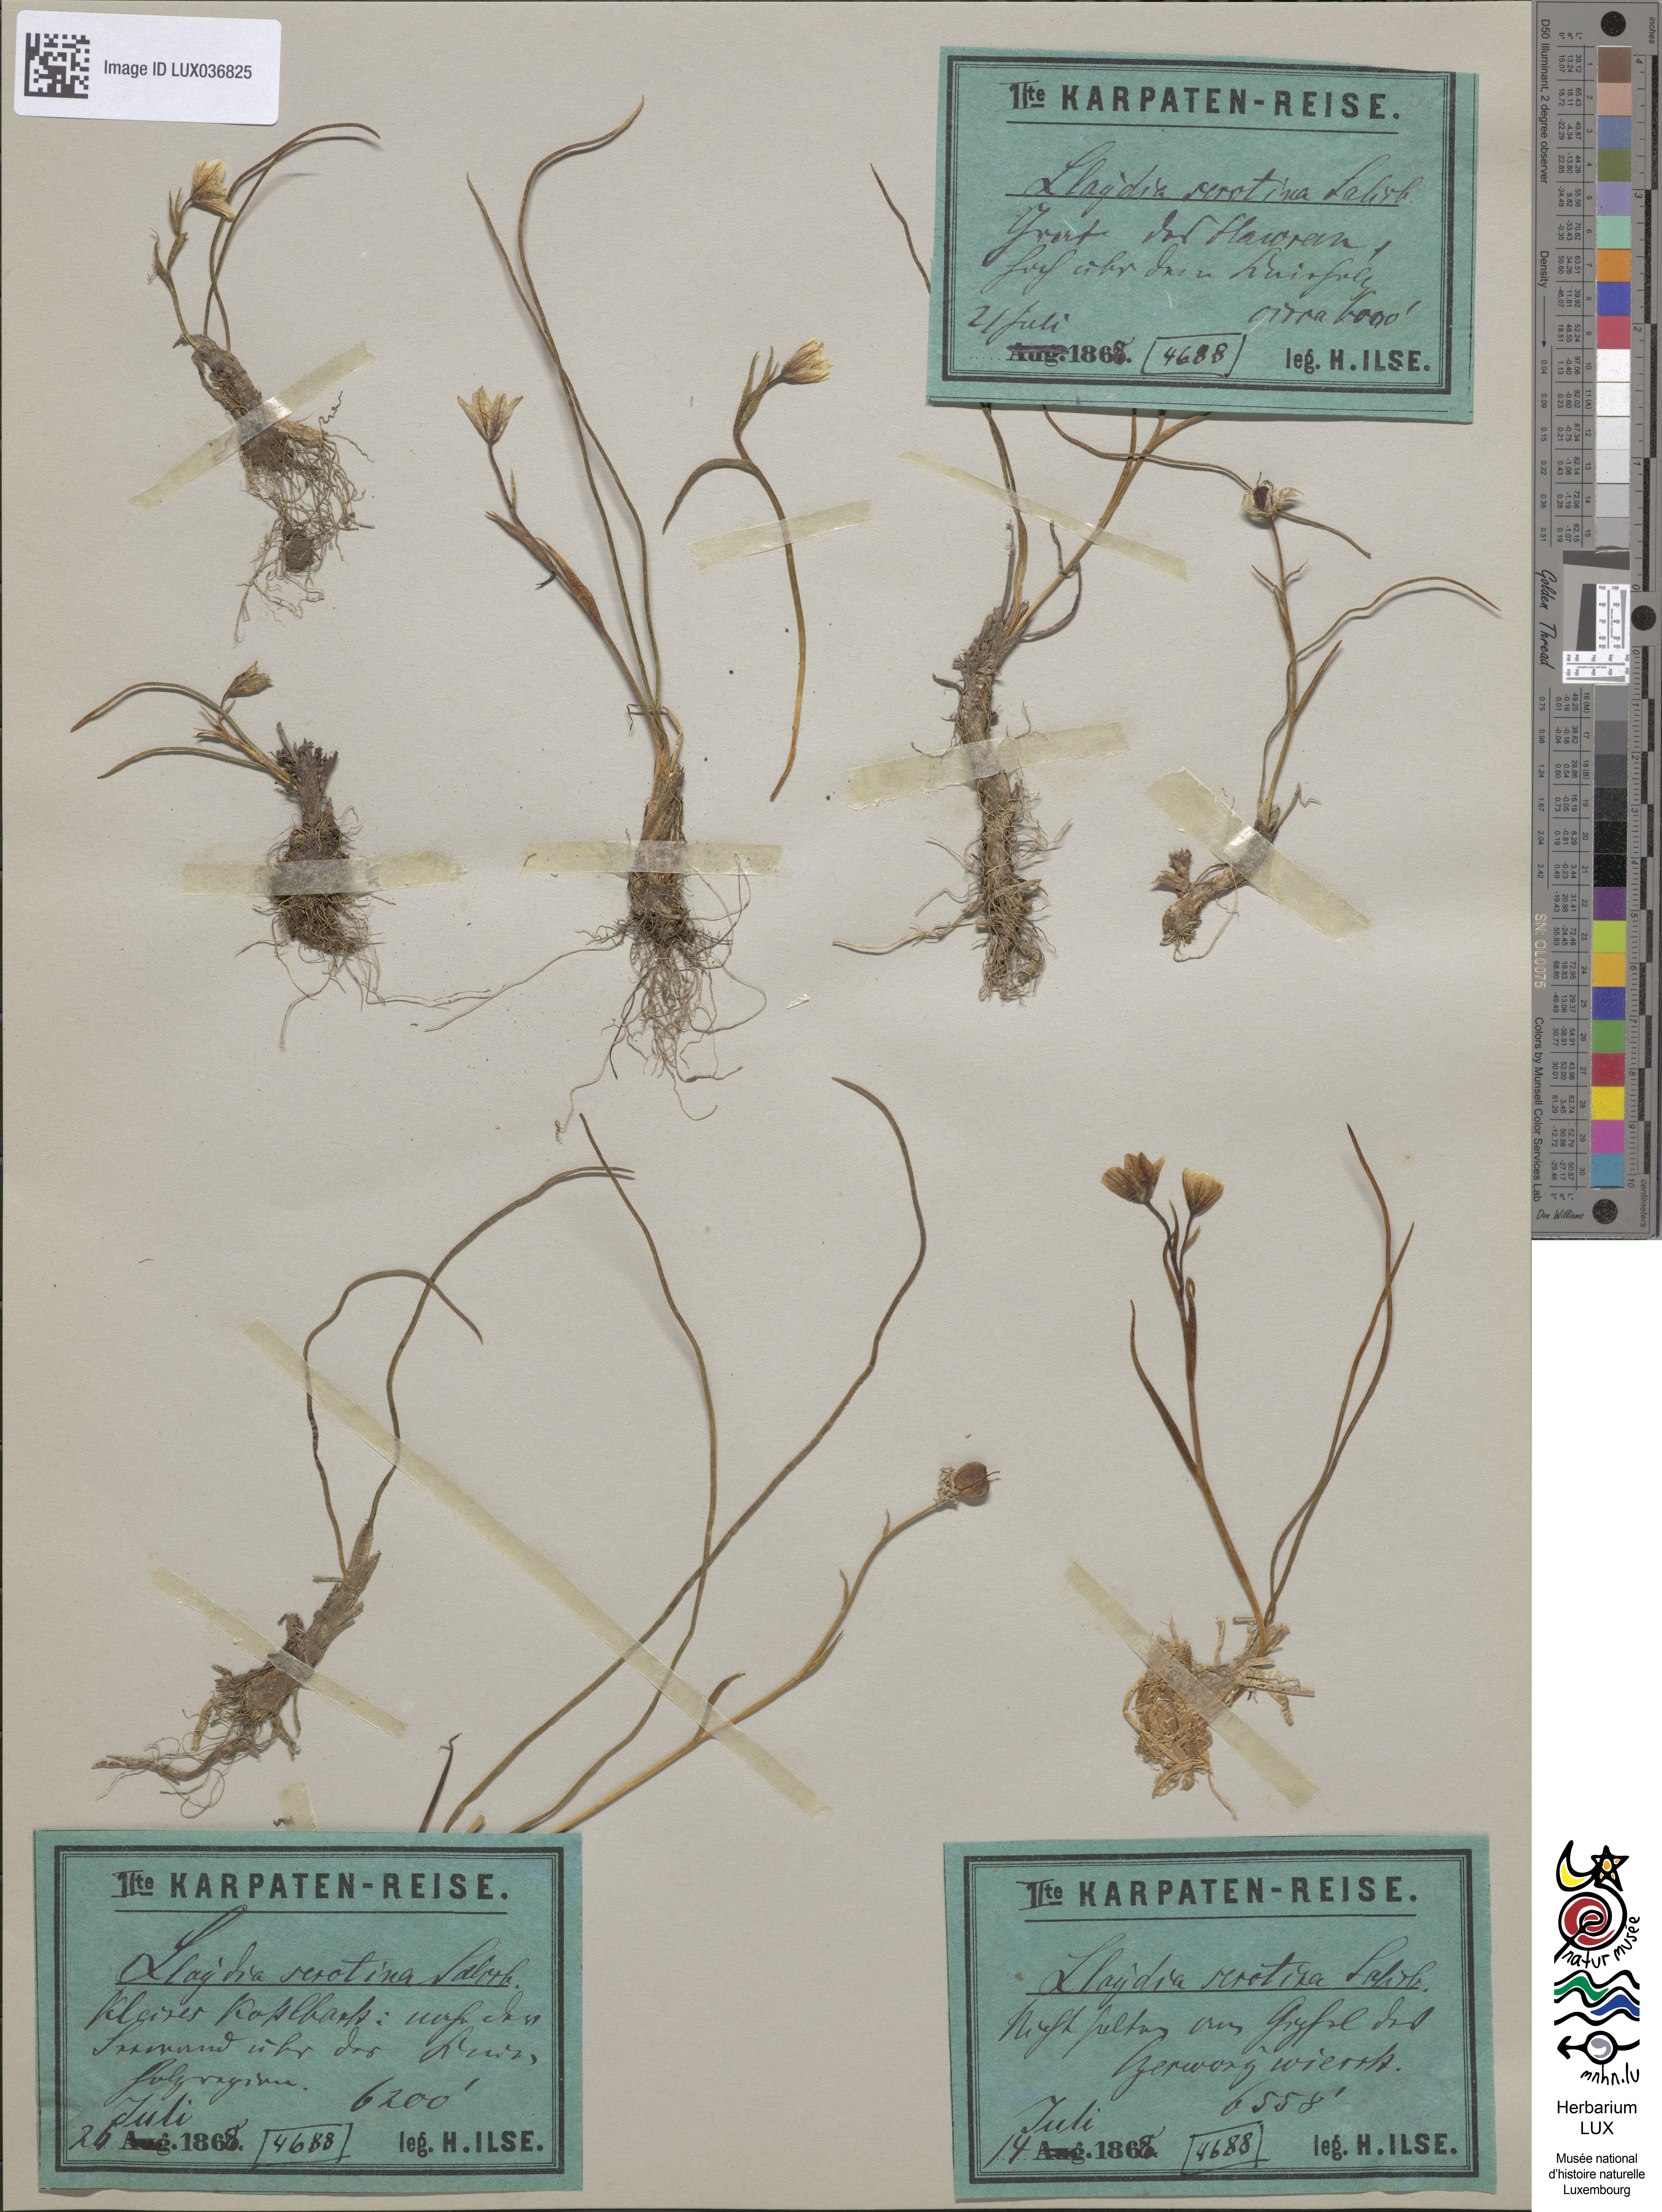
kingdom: Plantae
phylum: Tracheophyta
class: Liliopsida
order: Liliales
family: Liliaceae
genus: Gagea
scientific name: Gagea serotina
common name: Snowdon lily
